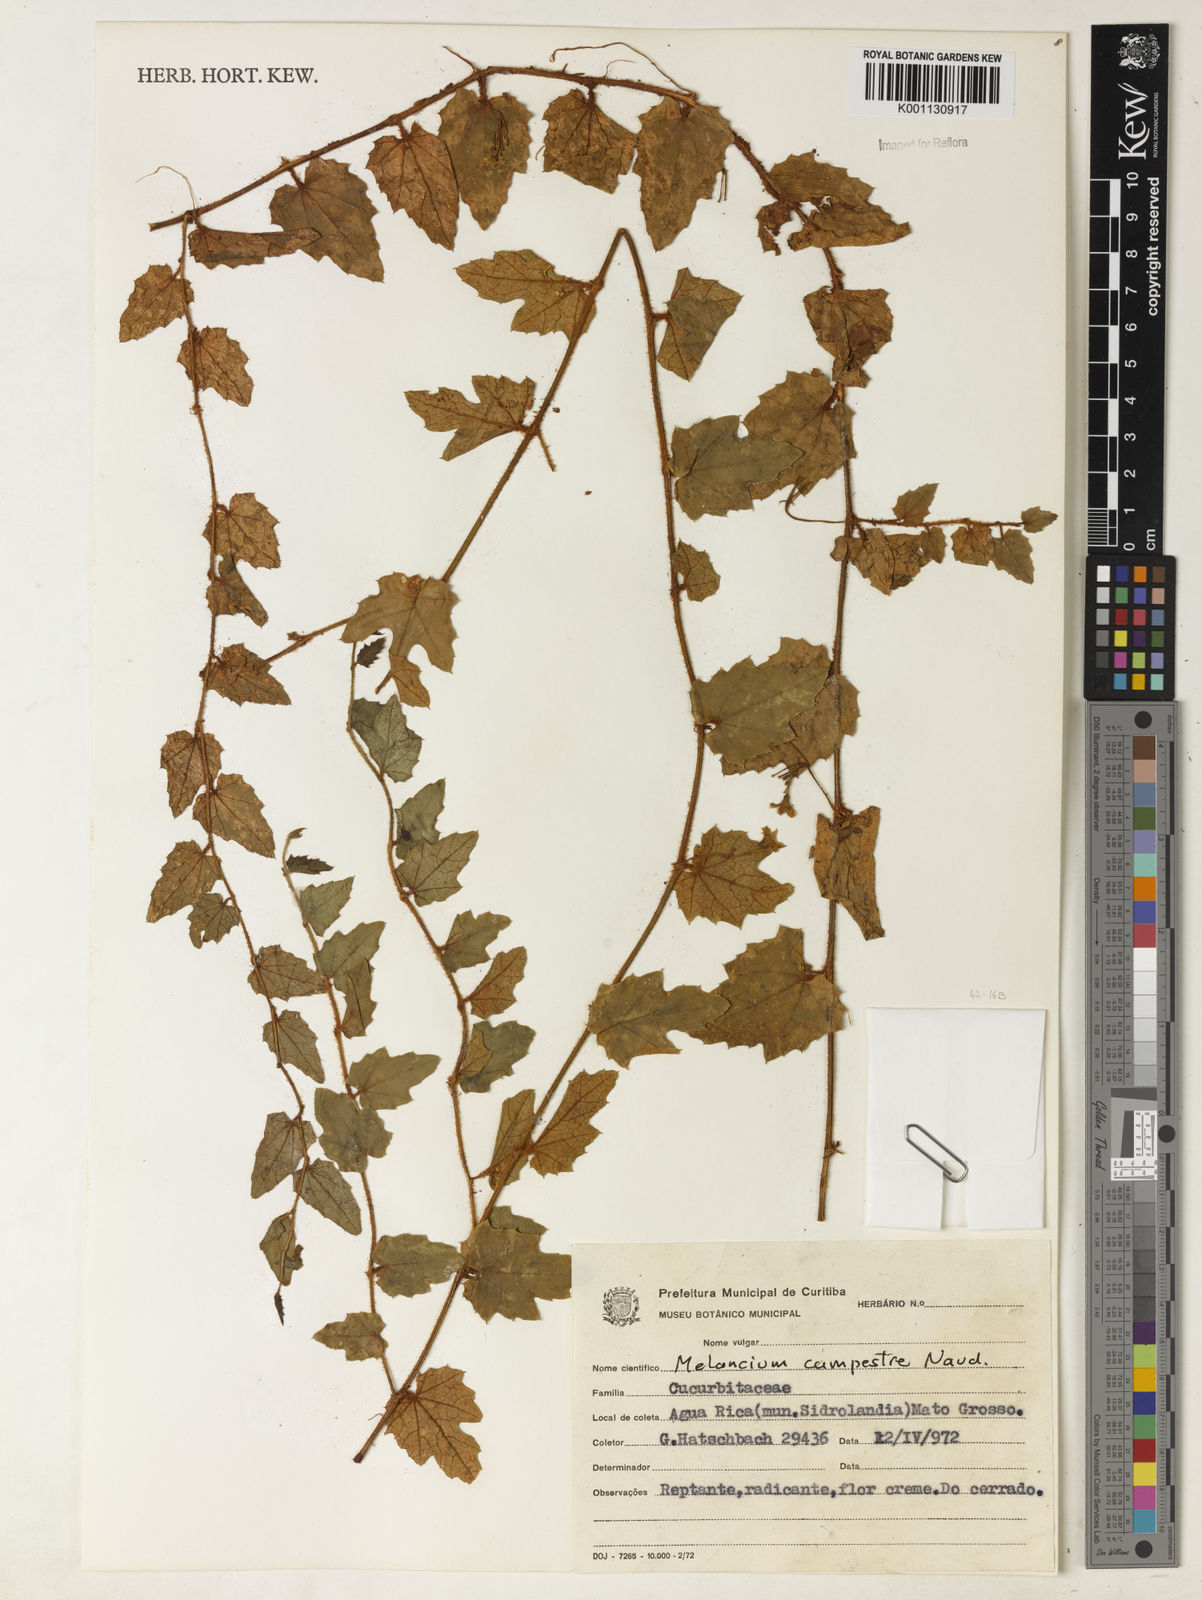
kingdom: Plantae
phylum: Tracheophyta
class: Magnoliopsida
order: Cucurbitales
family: Cucurbitaceae
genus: Melothria
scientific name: Melothria campestris
